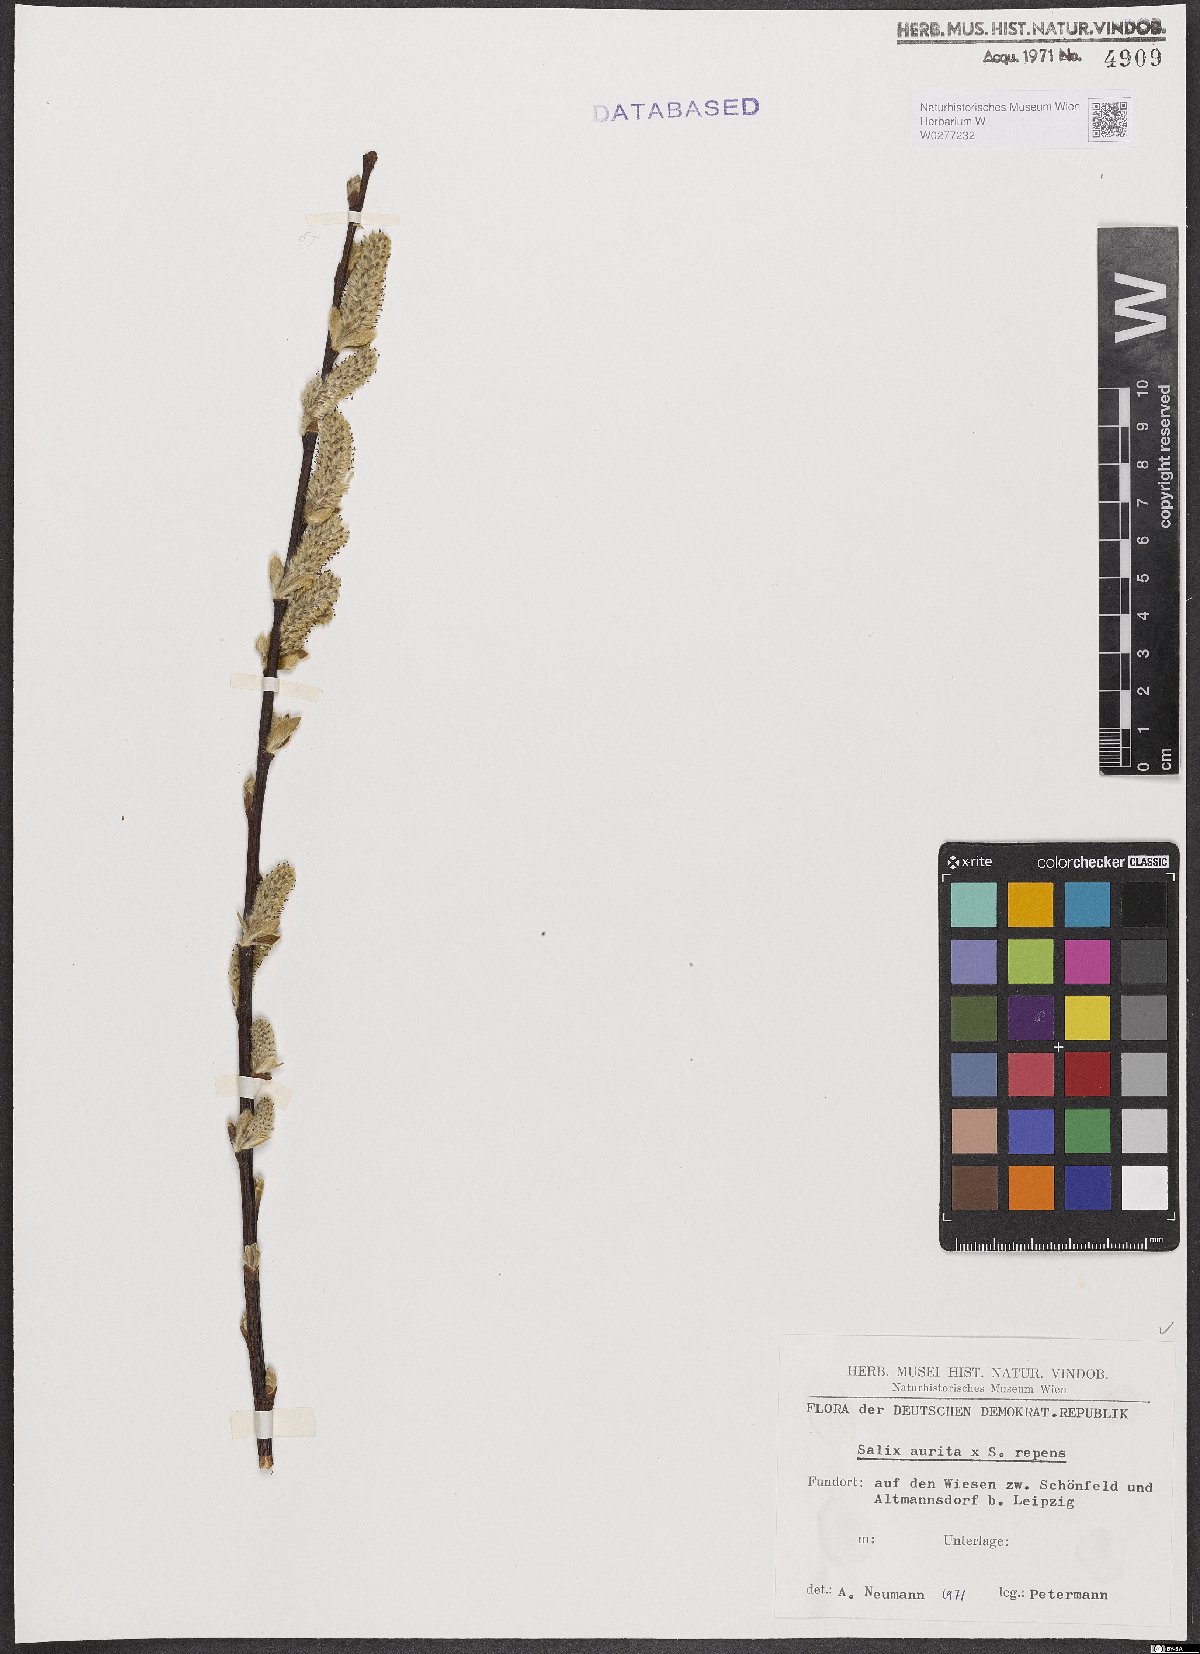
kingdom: Plantae
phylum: Tracheophyta
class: Magnoliopsida
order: Malpighiales
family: Salicaceae
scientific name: Salicaceae
